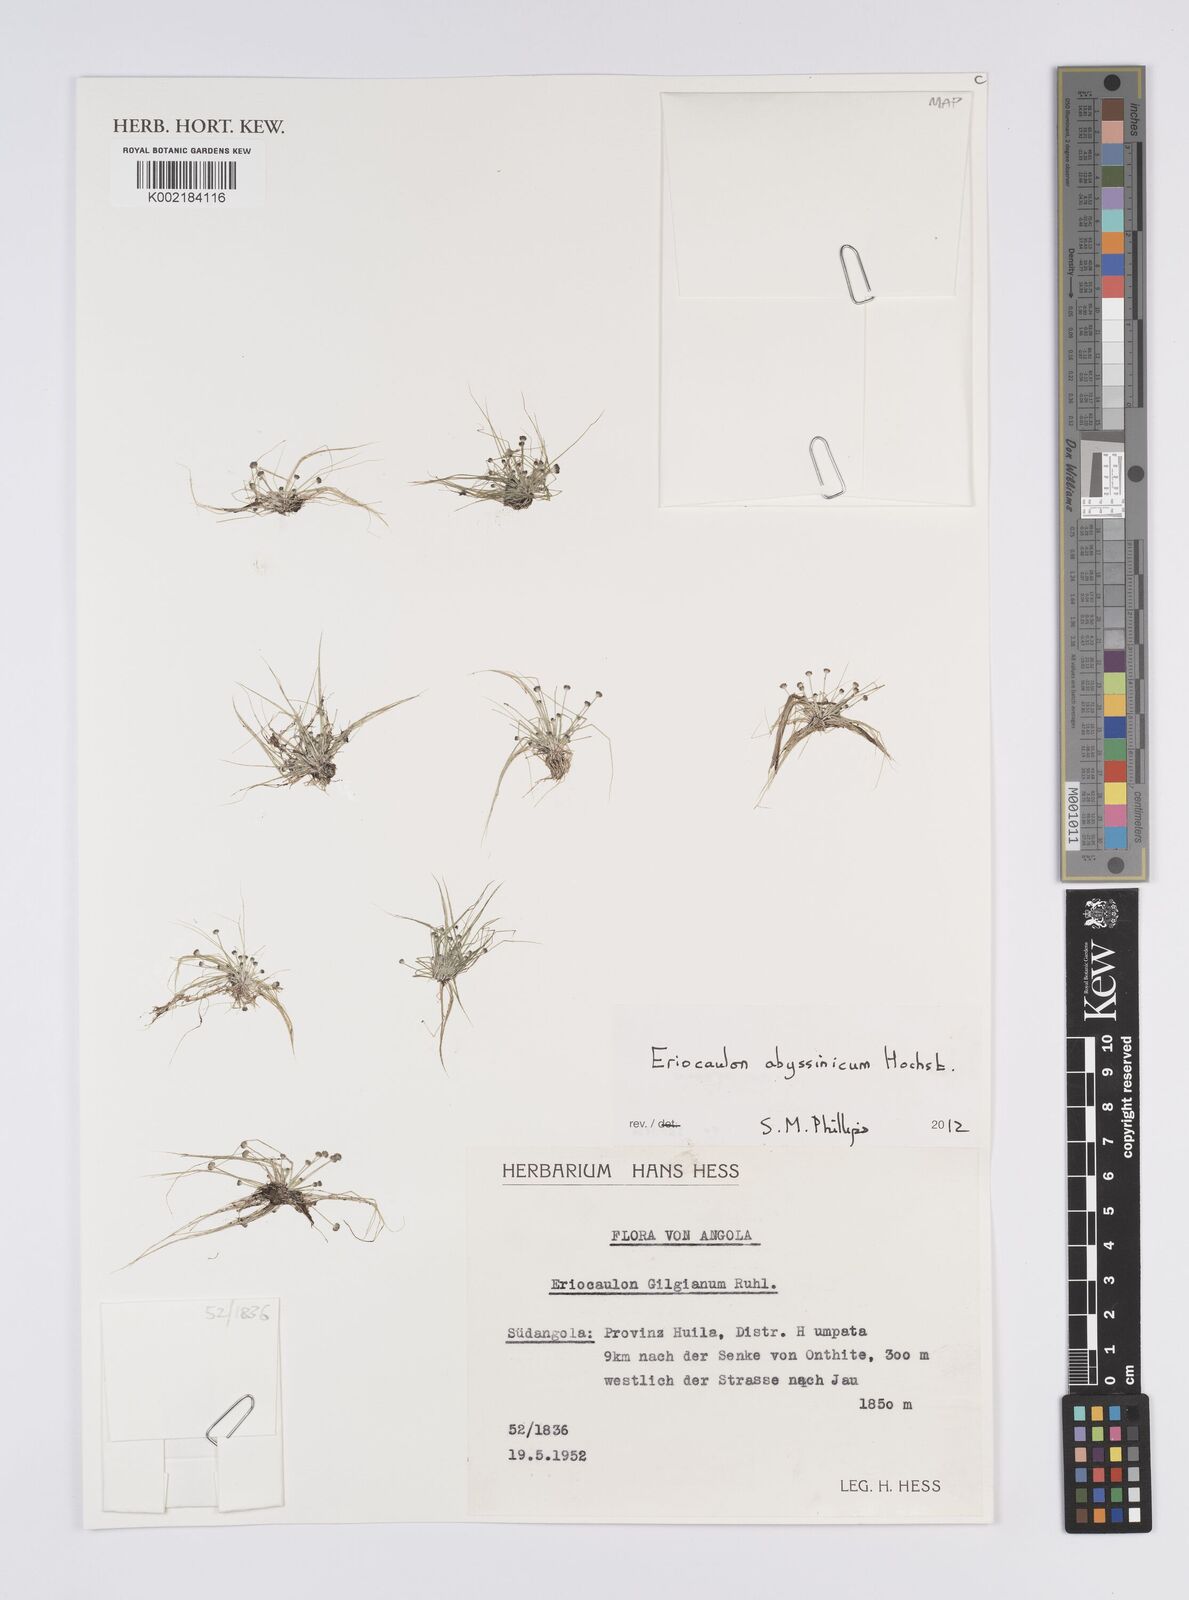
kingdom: Plantae
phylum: Tracheophyta
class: Liliopsida
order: Poales
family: Eriocaulaceae
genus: Eriocaulon
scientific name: Eriocaulon
